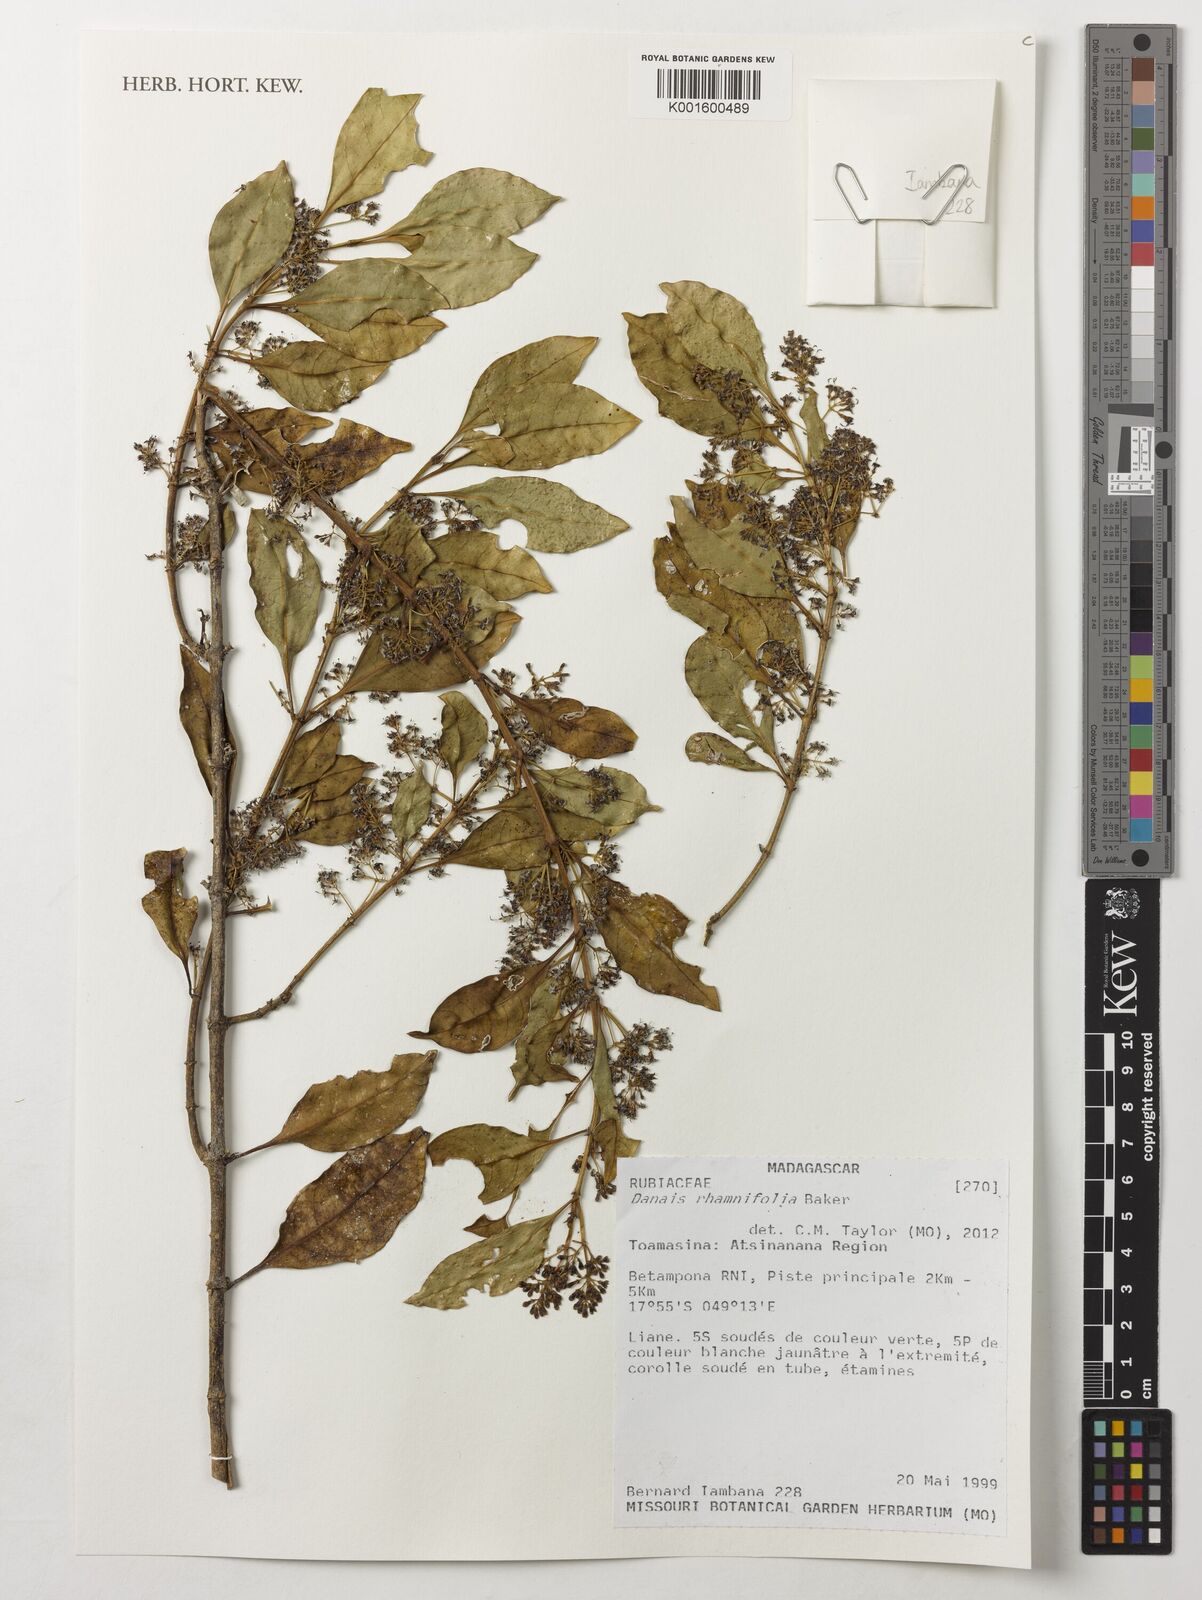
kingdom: Plantae
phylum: Tracheophyta
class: Magnoliopsida
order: Gentianales
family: Rubiaceae
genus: Danais
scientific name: Danais rhamnifolia
